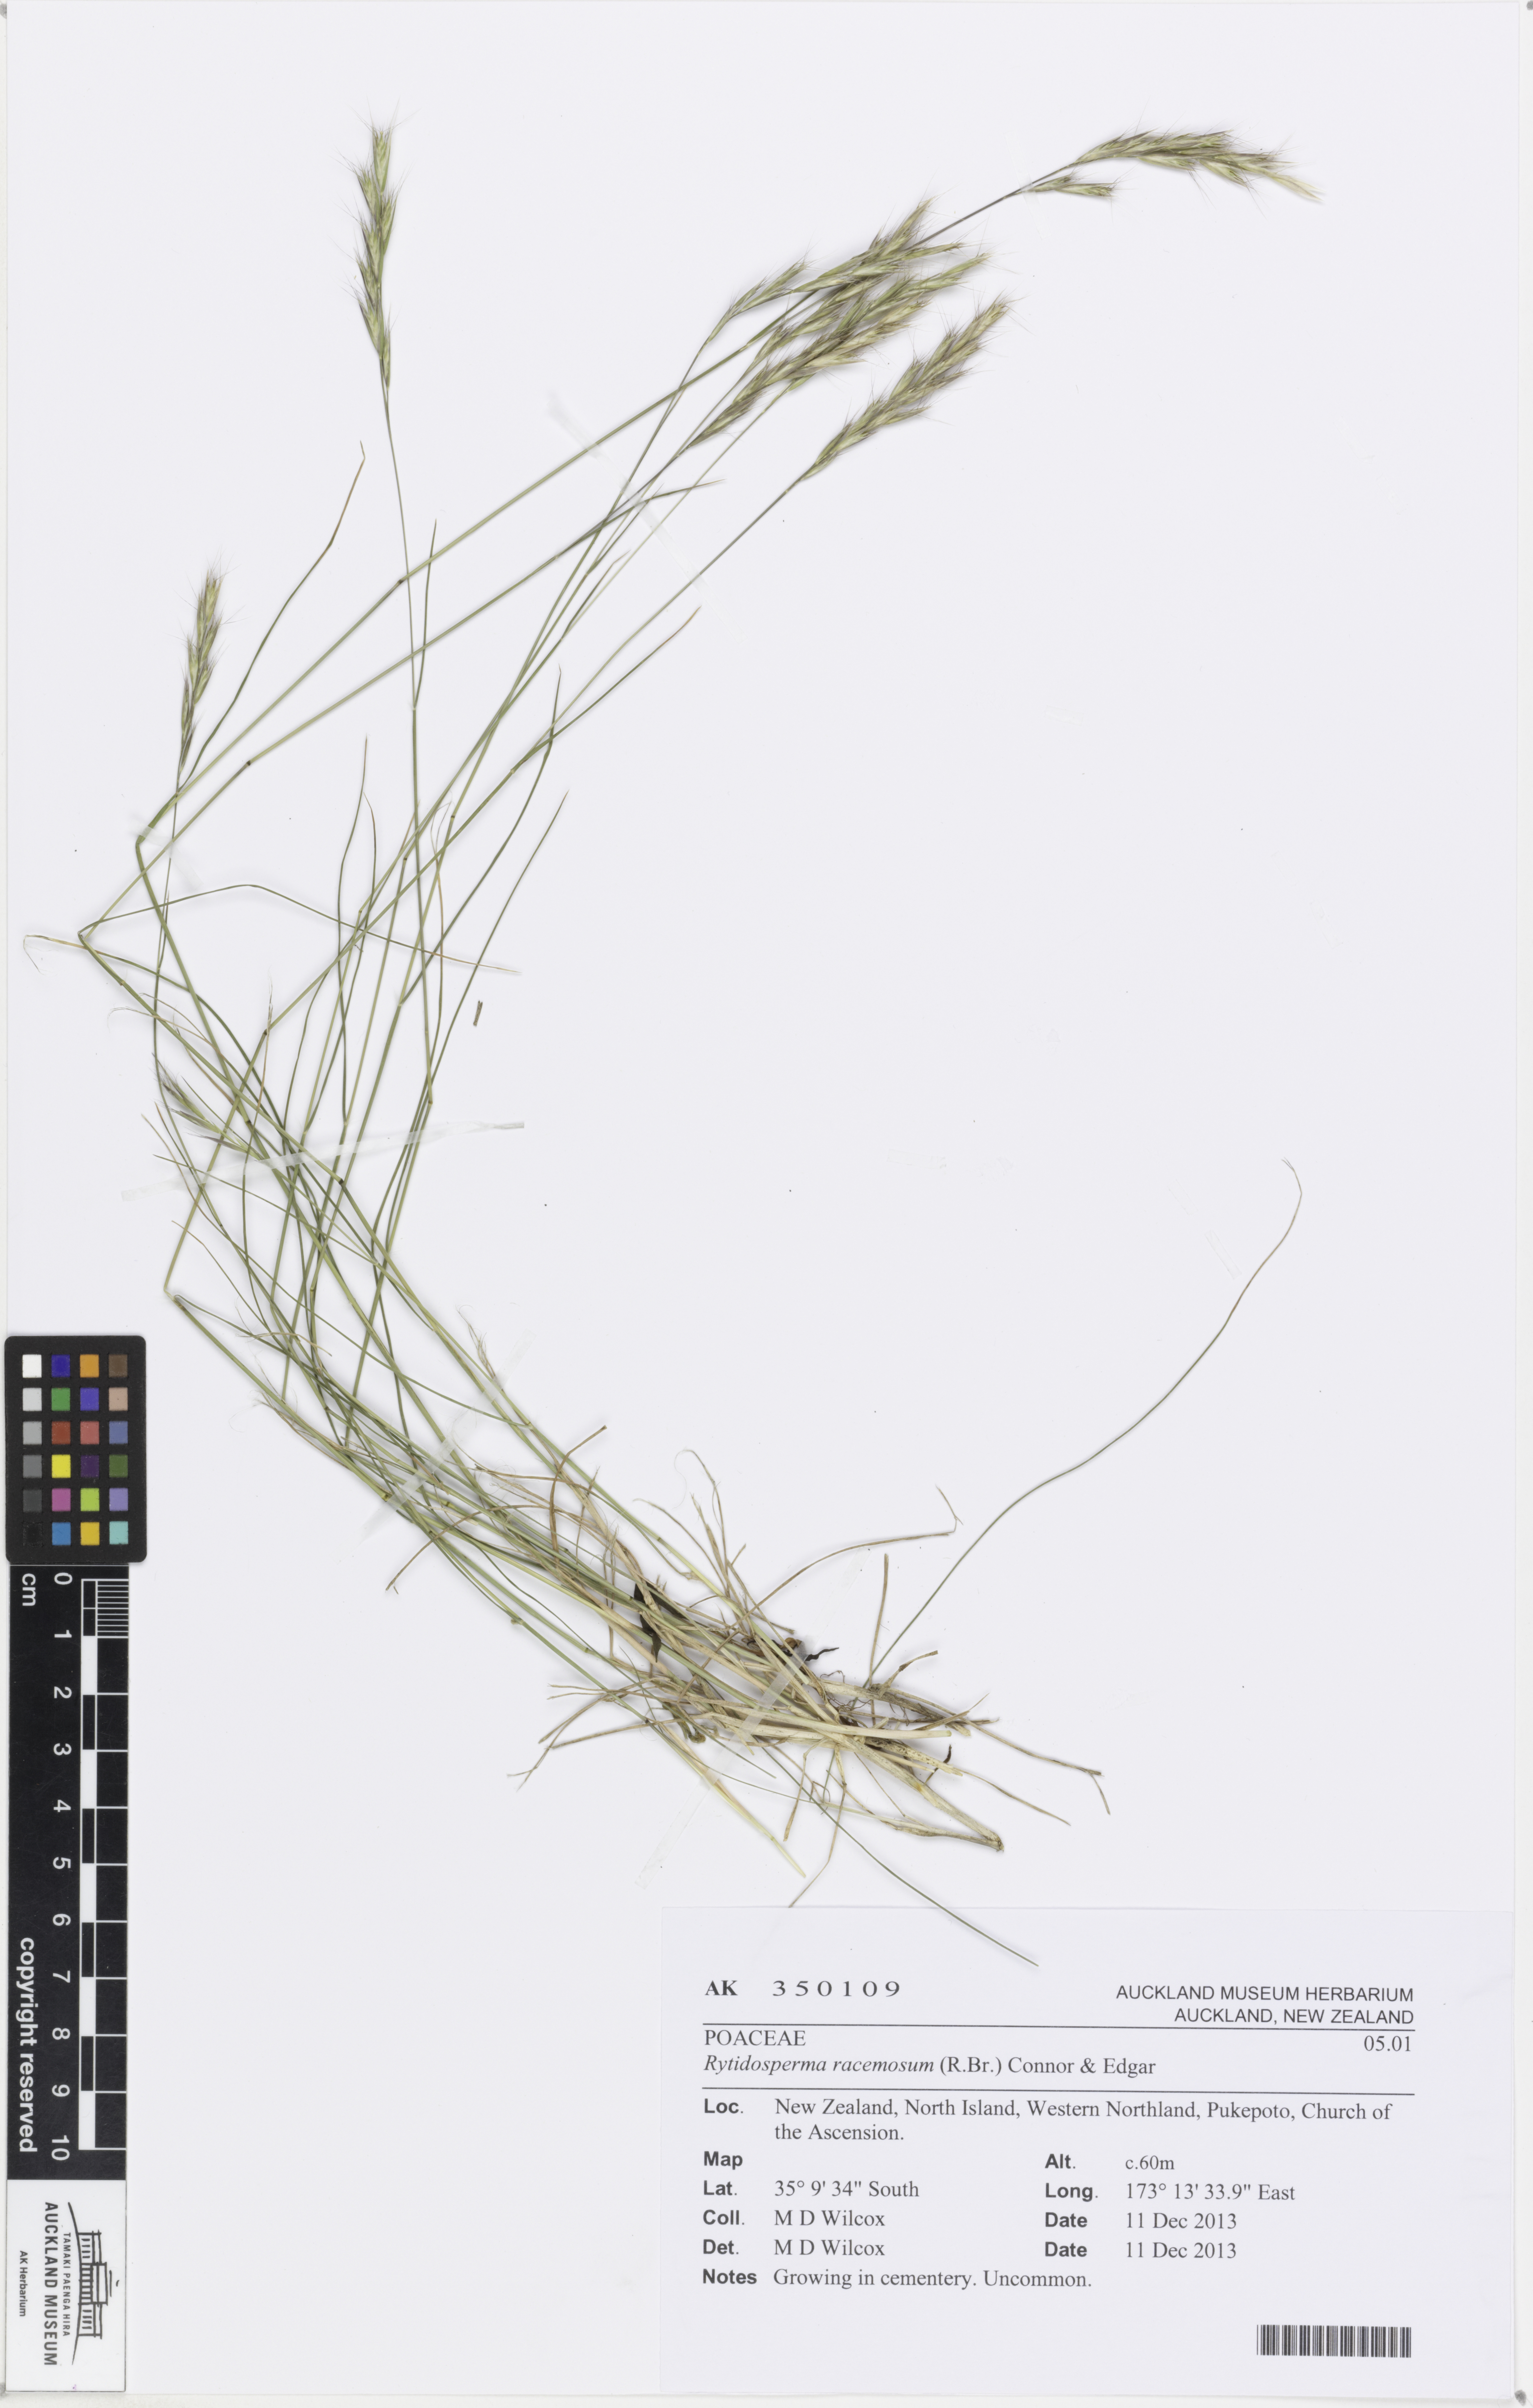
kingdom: Plantae
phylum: Tracheophyta
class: Liliopsida
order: Poales
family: Poaceae
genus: Rytidosperma
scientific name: Rytidosperma racemosum
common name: Wallaby-grass
